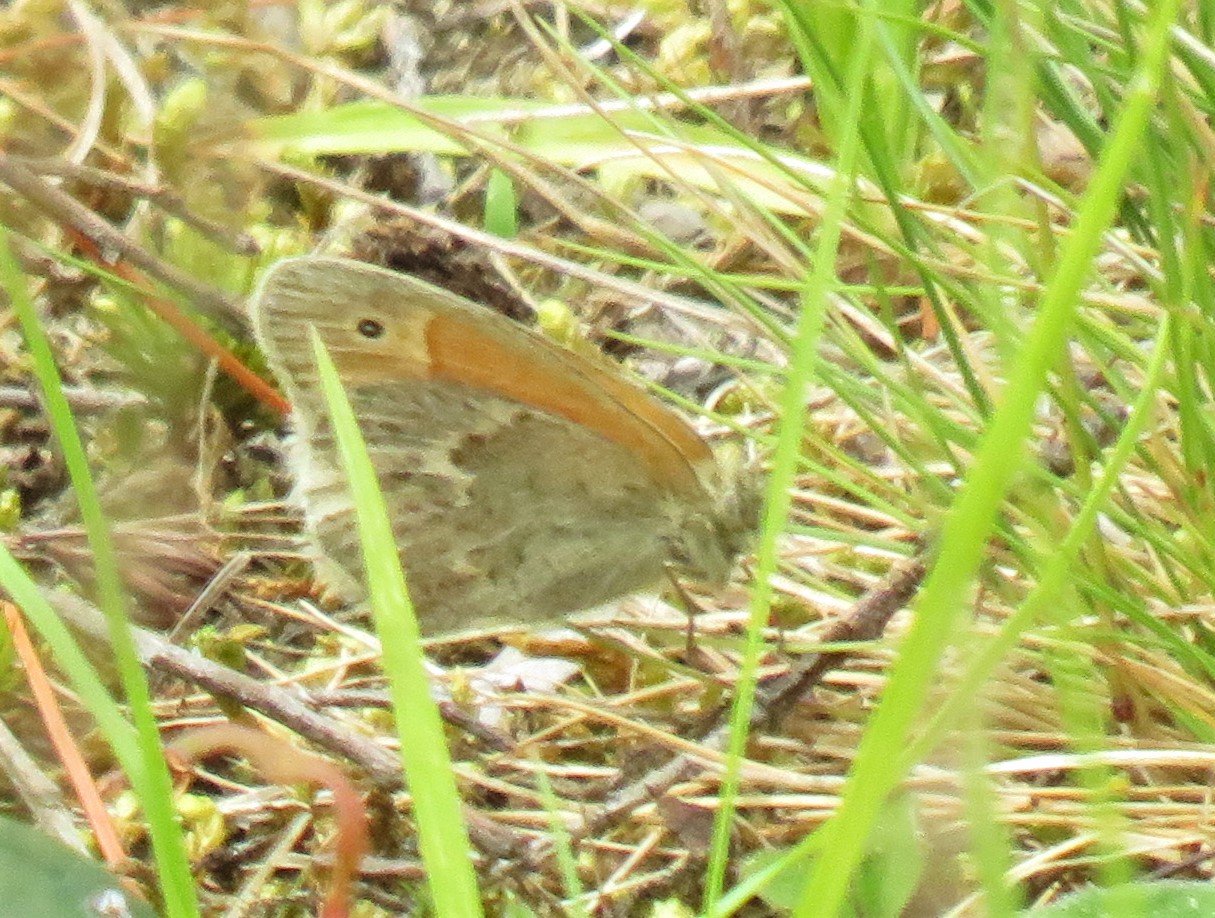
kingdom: Animalia
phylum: Arthropoda
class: Insecta
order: Lepidoptera
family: Nymphalidae
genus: Coenonympha
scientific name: Coenonympha tullia
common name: Large Heath
